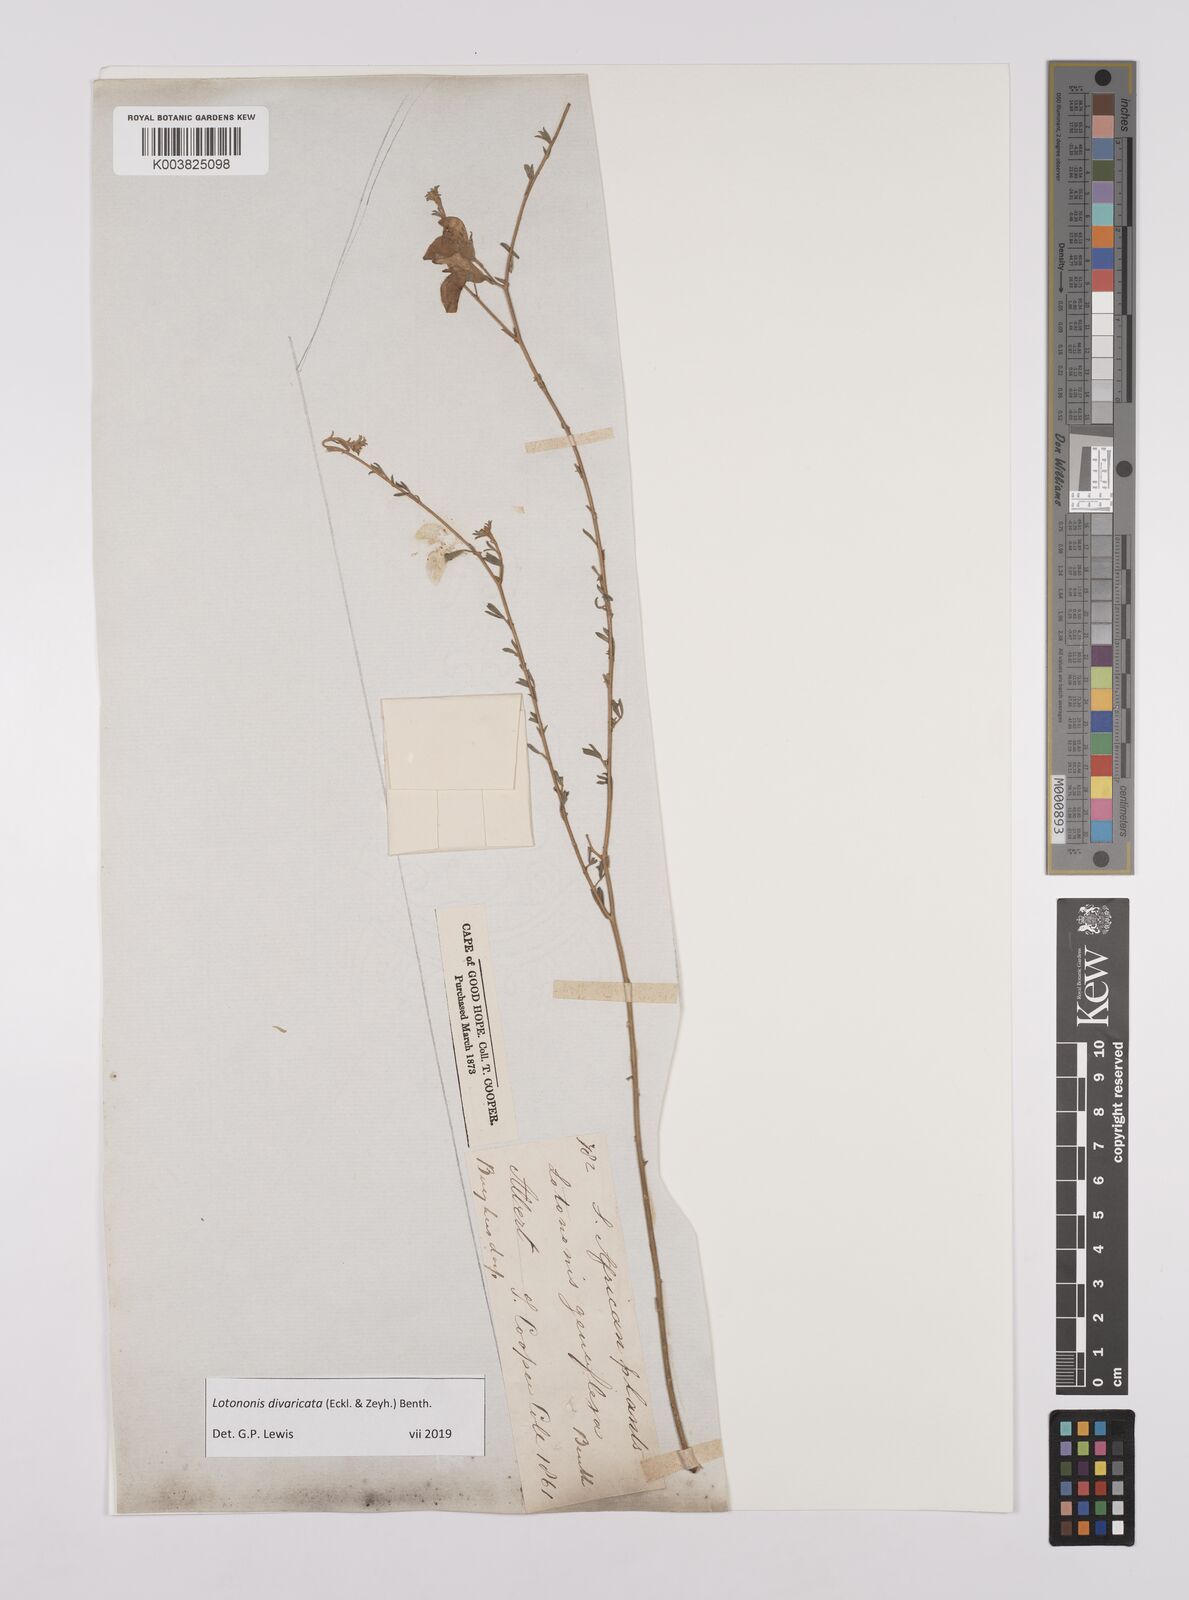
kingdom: Plantae
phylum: Tracheophyta
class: Magnoliopsida
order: Fabales
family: Fabaceae
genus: Lotononis
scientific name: Lotononis divaricata
